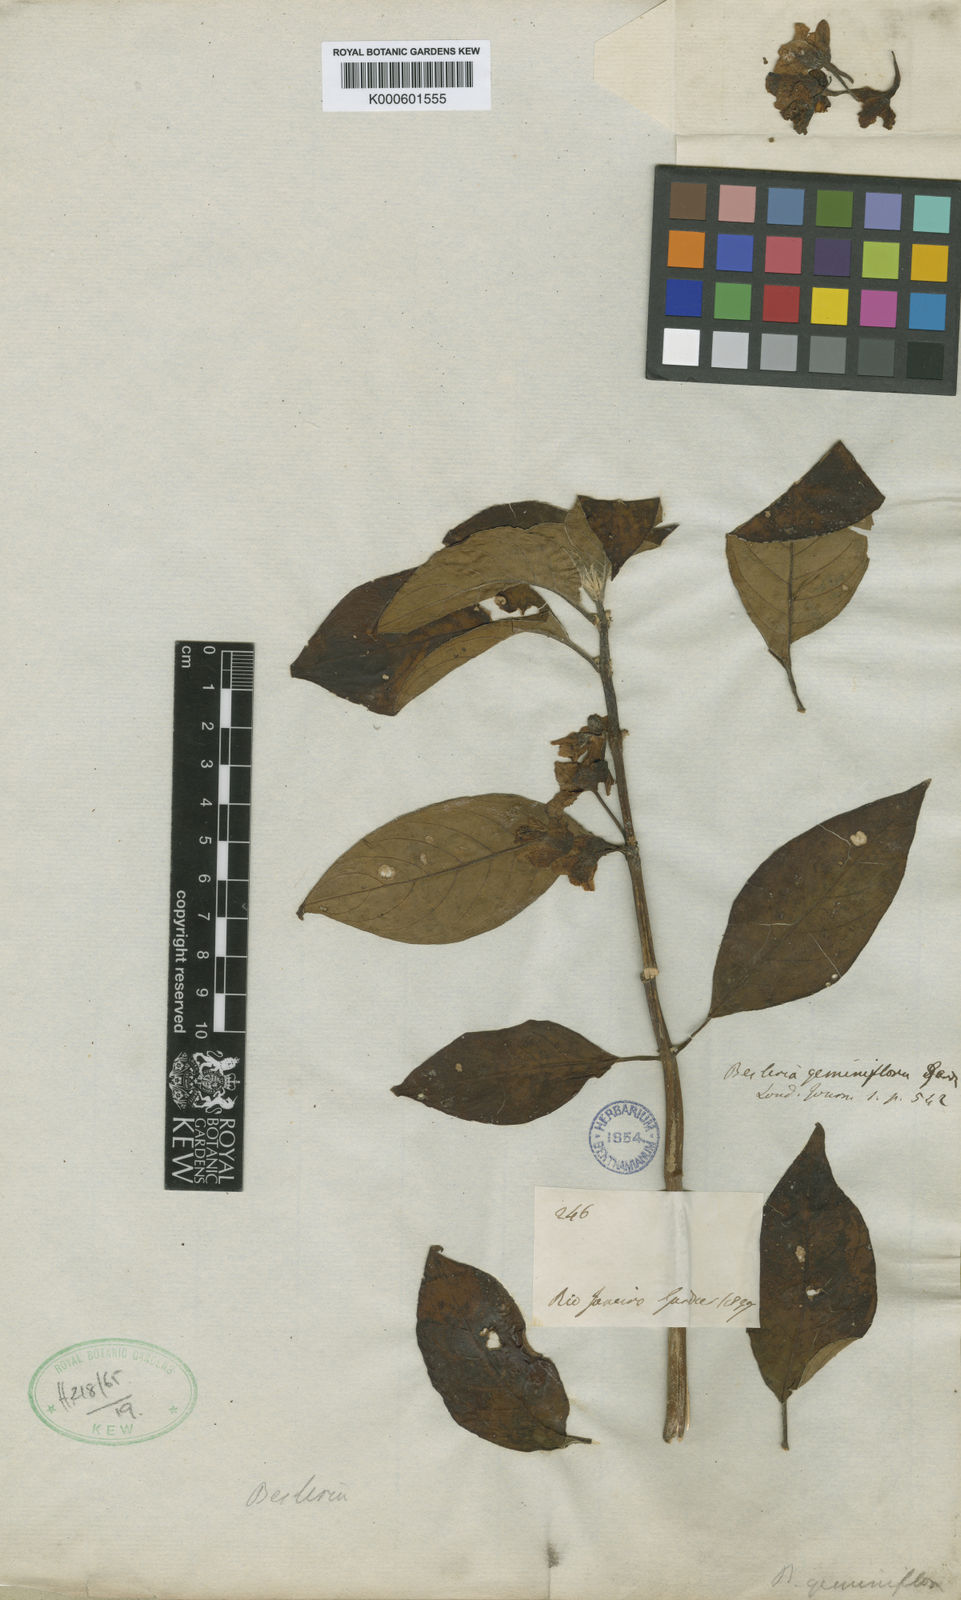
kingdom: Plantae
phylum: Tracheophyta
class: Magnoliopsida
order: Lamiales
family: Gesneriaceae
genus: Besleria
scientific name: Besleria melancholica
